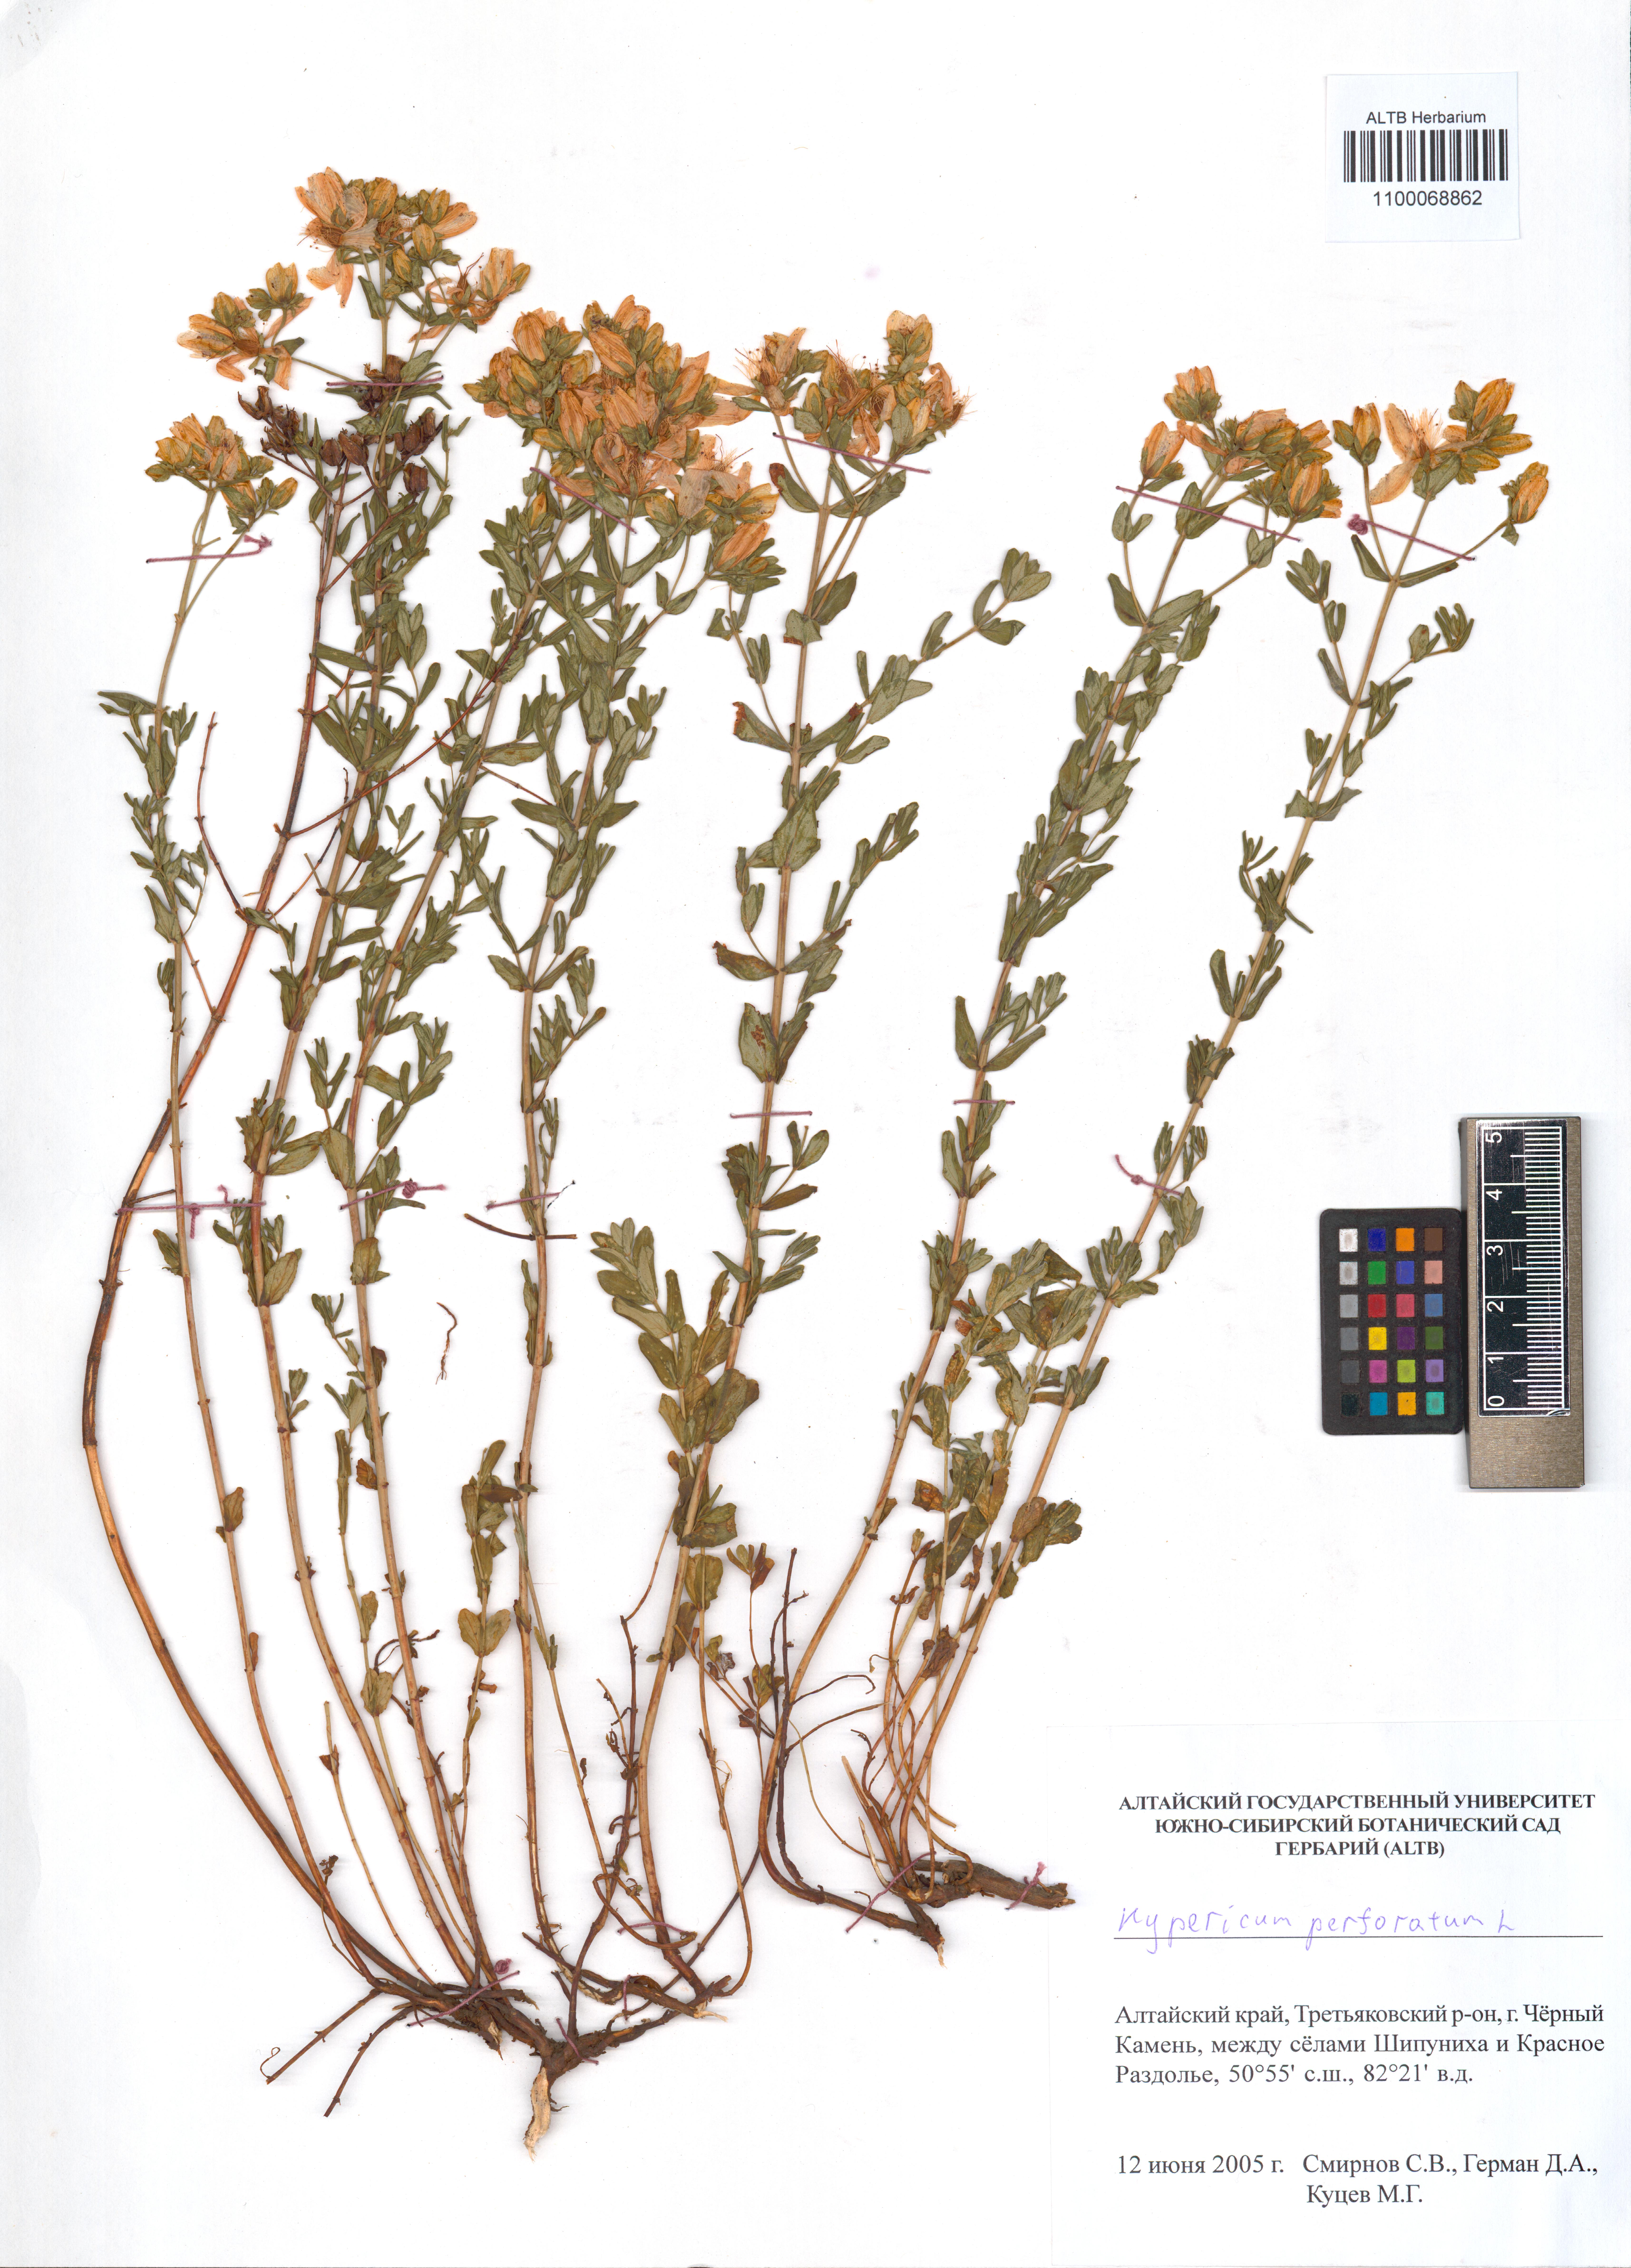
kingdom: Plantae
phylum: Tracheophyta
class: Magnoliopsida
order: Malpighiales
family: Hypericaceae
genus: Hypericum
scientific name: Hypericum perforatum
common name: Common st. johnswort
